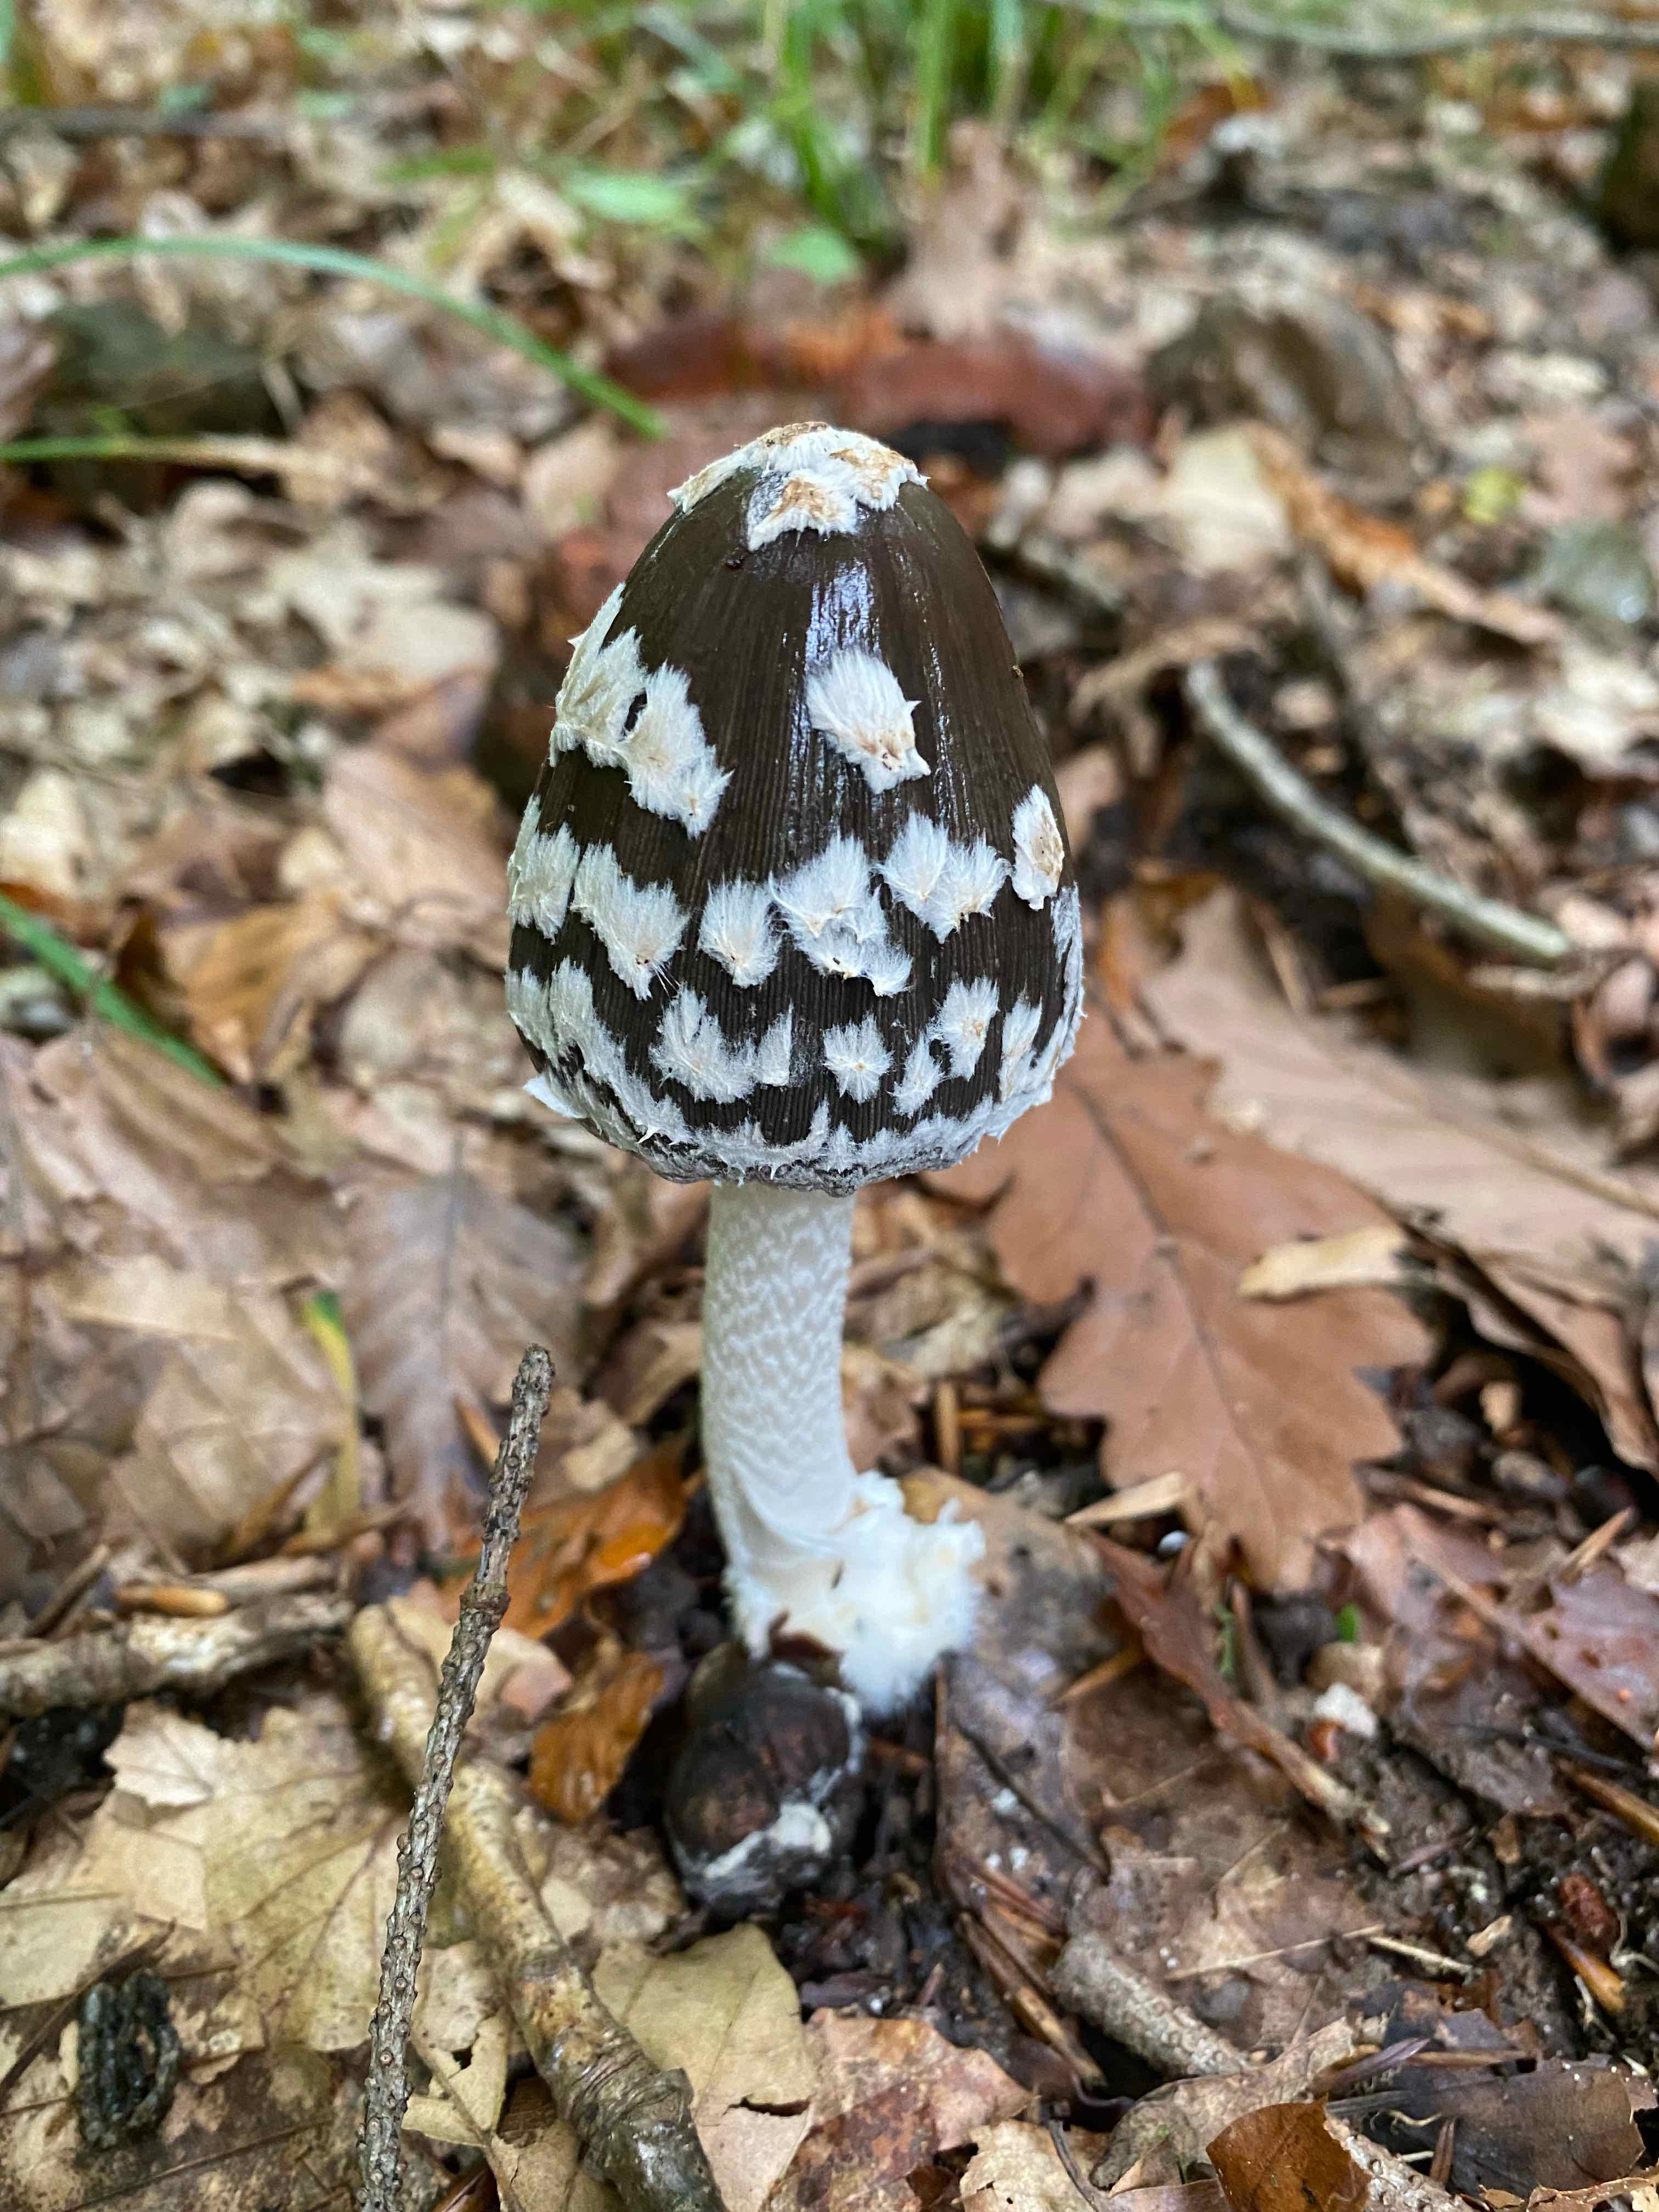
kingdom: Fungi
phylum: Basidiomycota
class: Agaricomycetes
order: Agaricales
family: Psathyrellaceae
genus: Coprinopsis
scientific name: Coprinopsis picacea
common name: skade-blækhat
